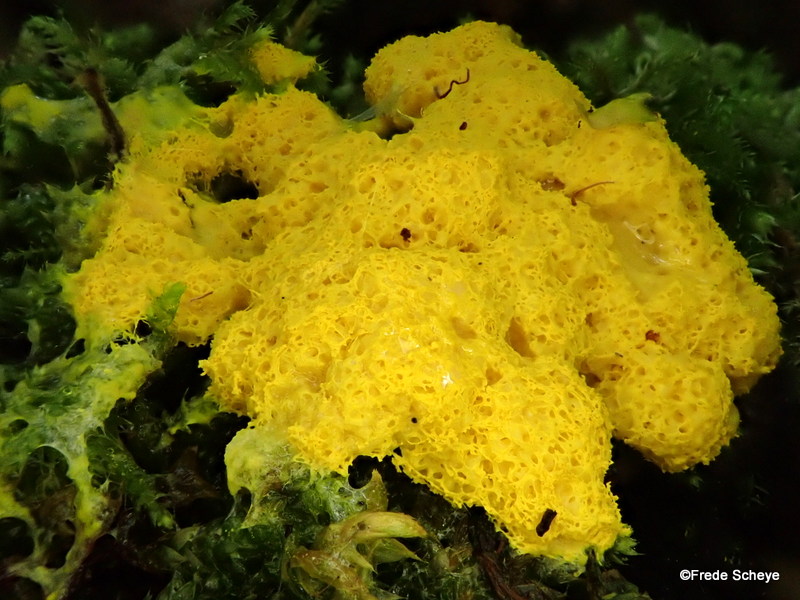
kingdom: Protozoa
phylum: Mycetozoa
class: Myxomycetes
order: Physarales
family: Physaraceae
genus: Fuligo
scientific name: Fuligo septica
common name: gul troldsmør
